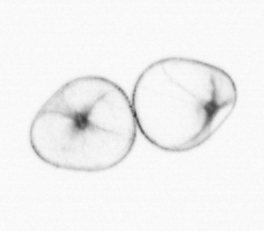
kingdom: Chromista
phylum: Myzozoa
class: Dinophyceae
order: Noctilucales
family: Noctilucaceae
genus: Noctiluca
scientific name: Noctiluca scintillans
